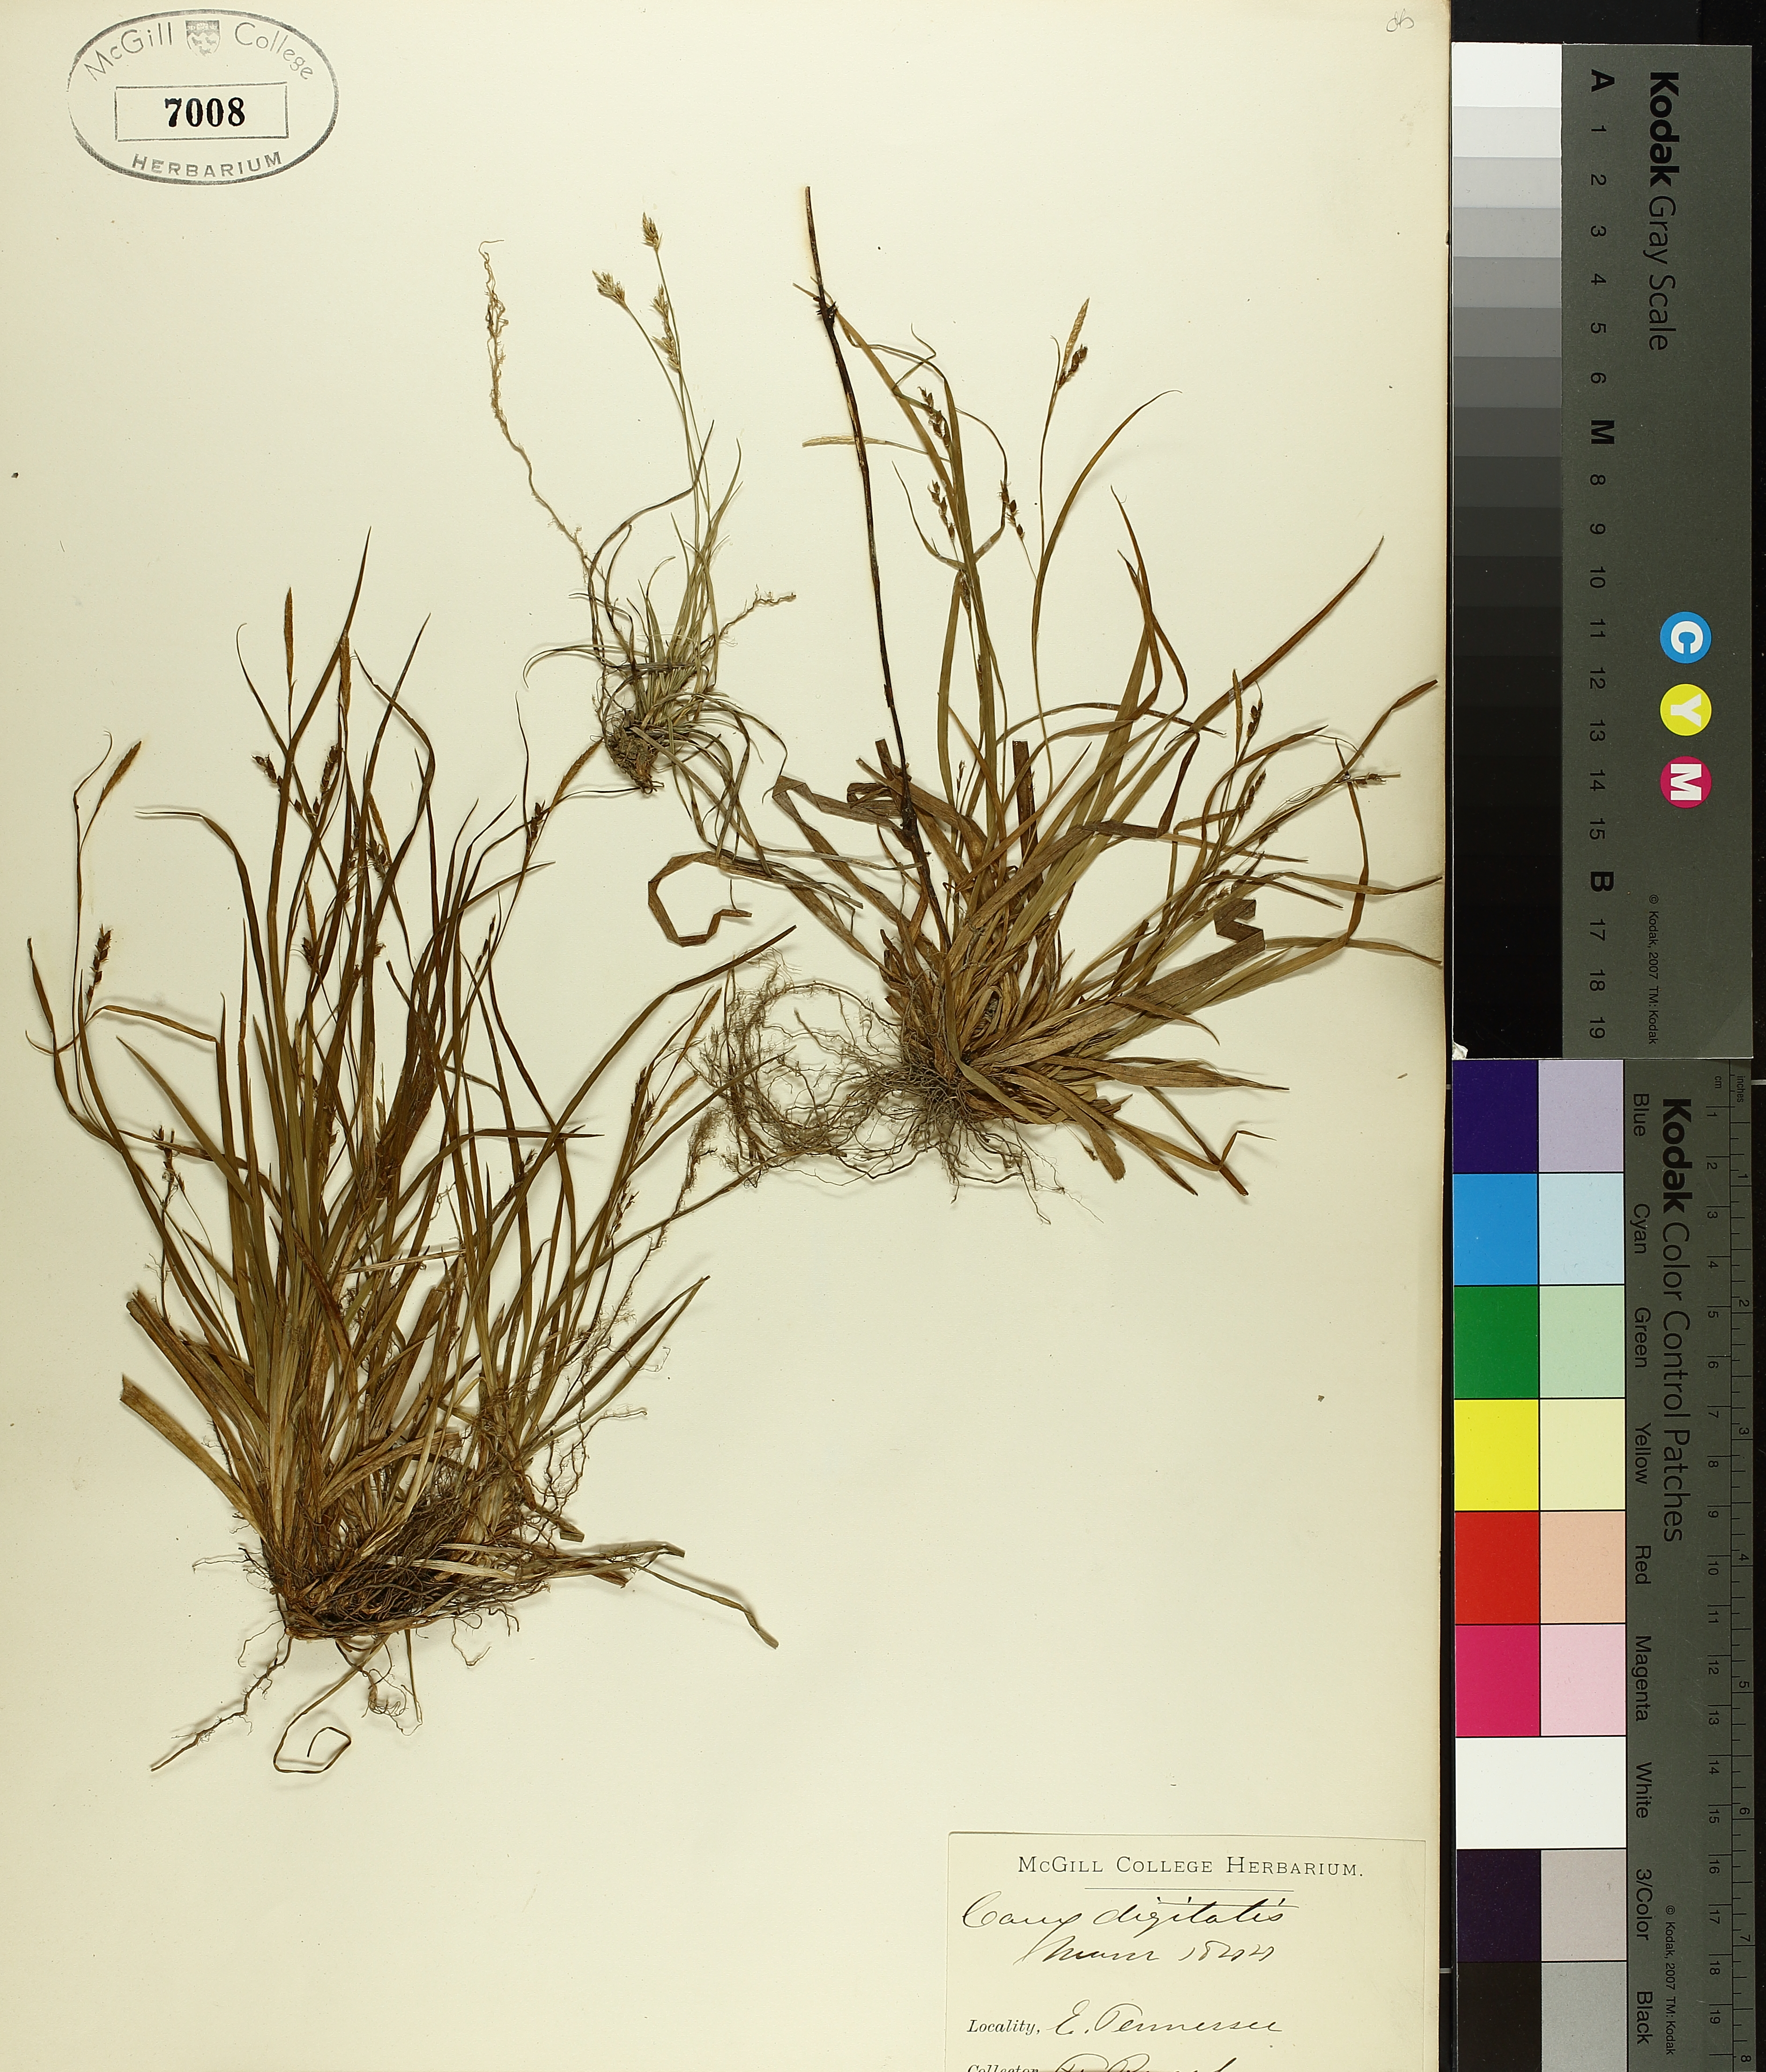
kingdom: Plantae
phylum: Tracheophyta
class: Liliopsida
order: Poales
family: Cyperaceae
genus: Carex
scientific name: Carex digitalis
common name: Slender wood sedge
